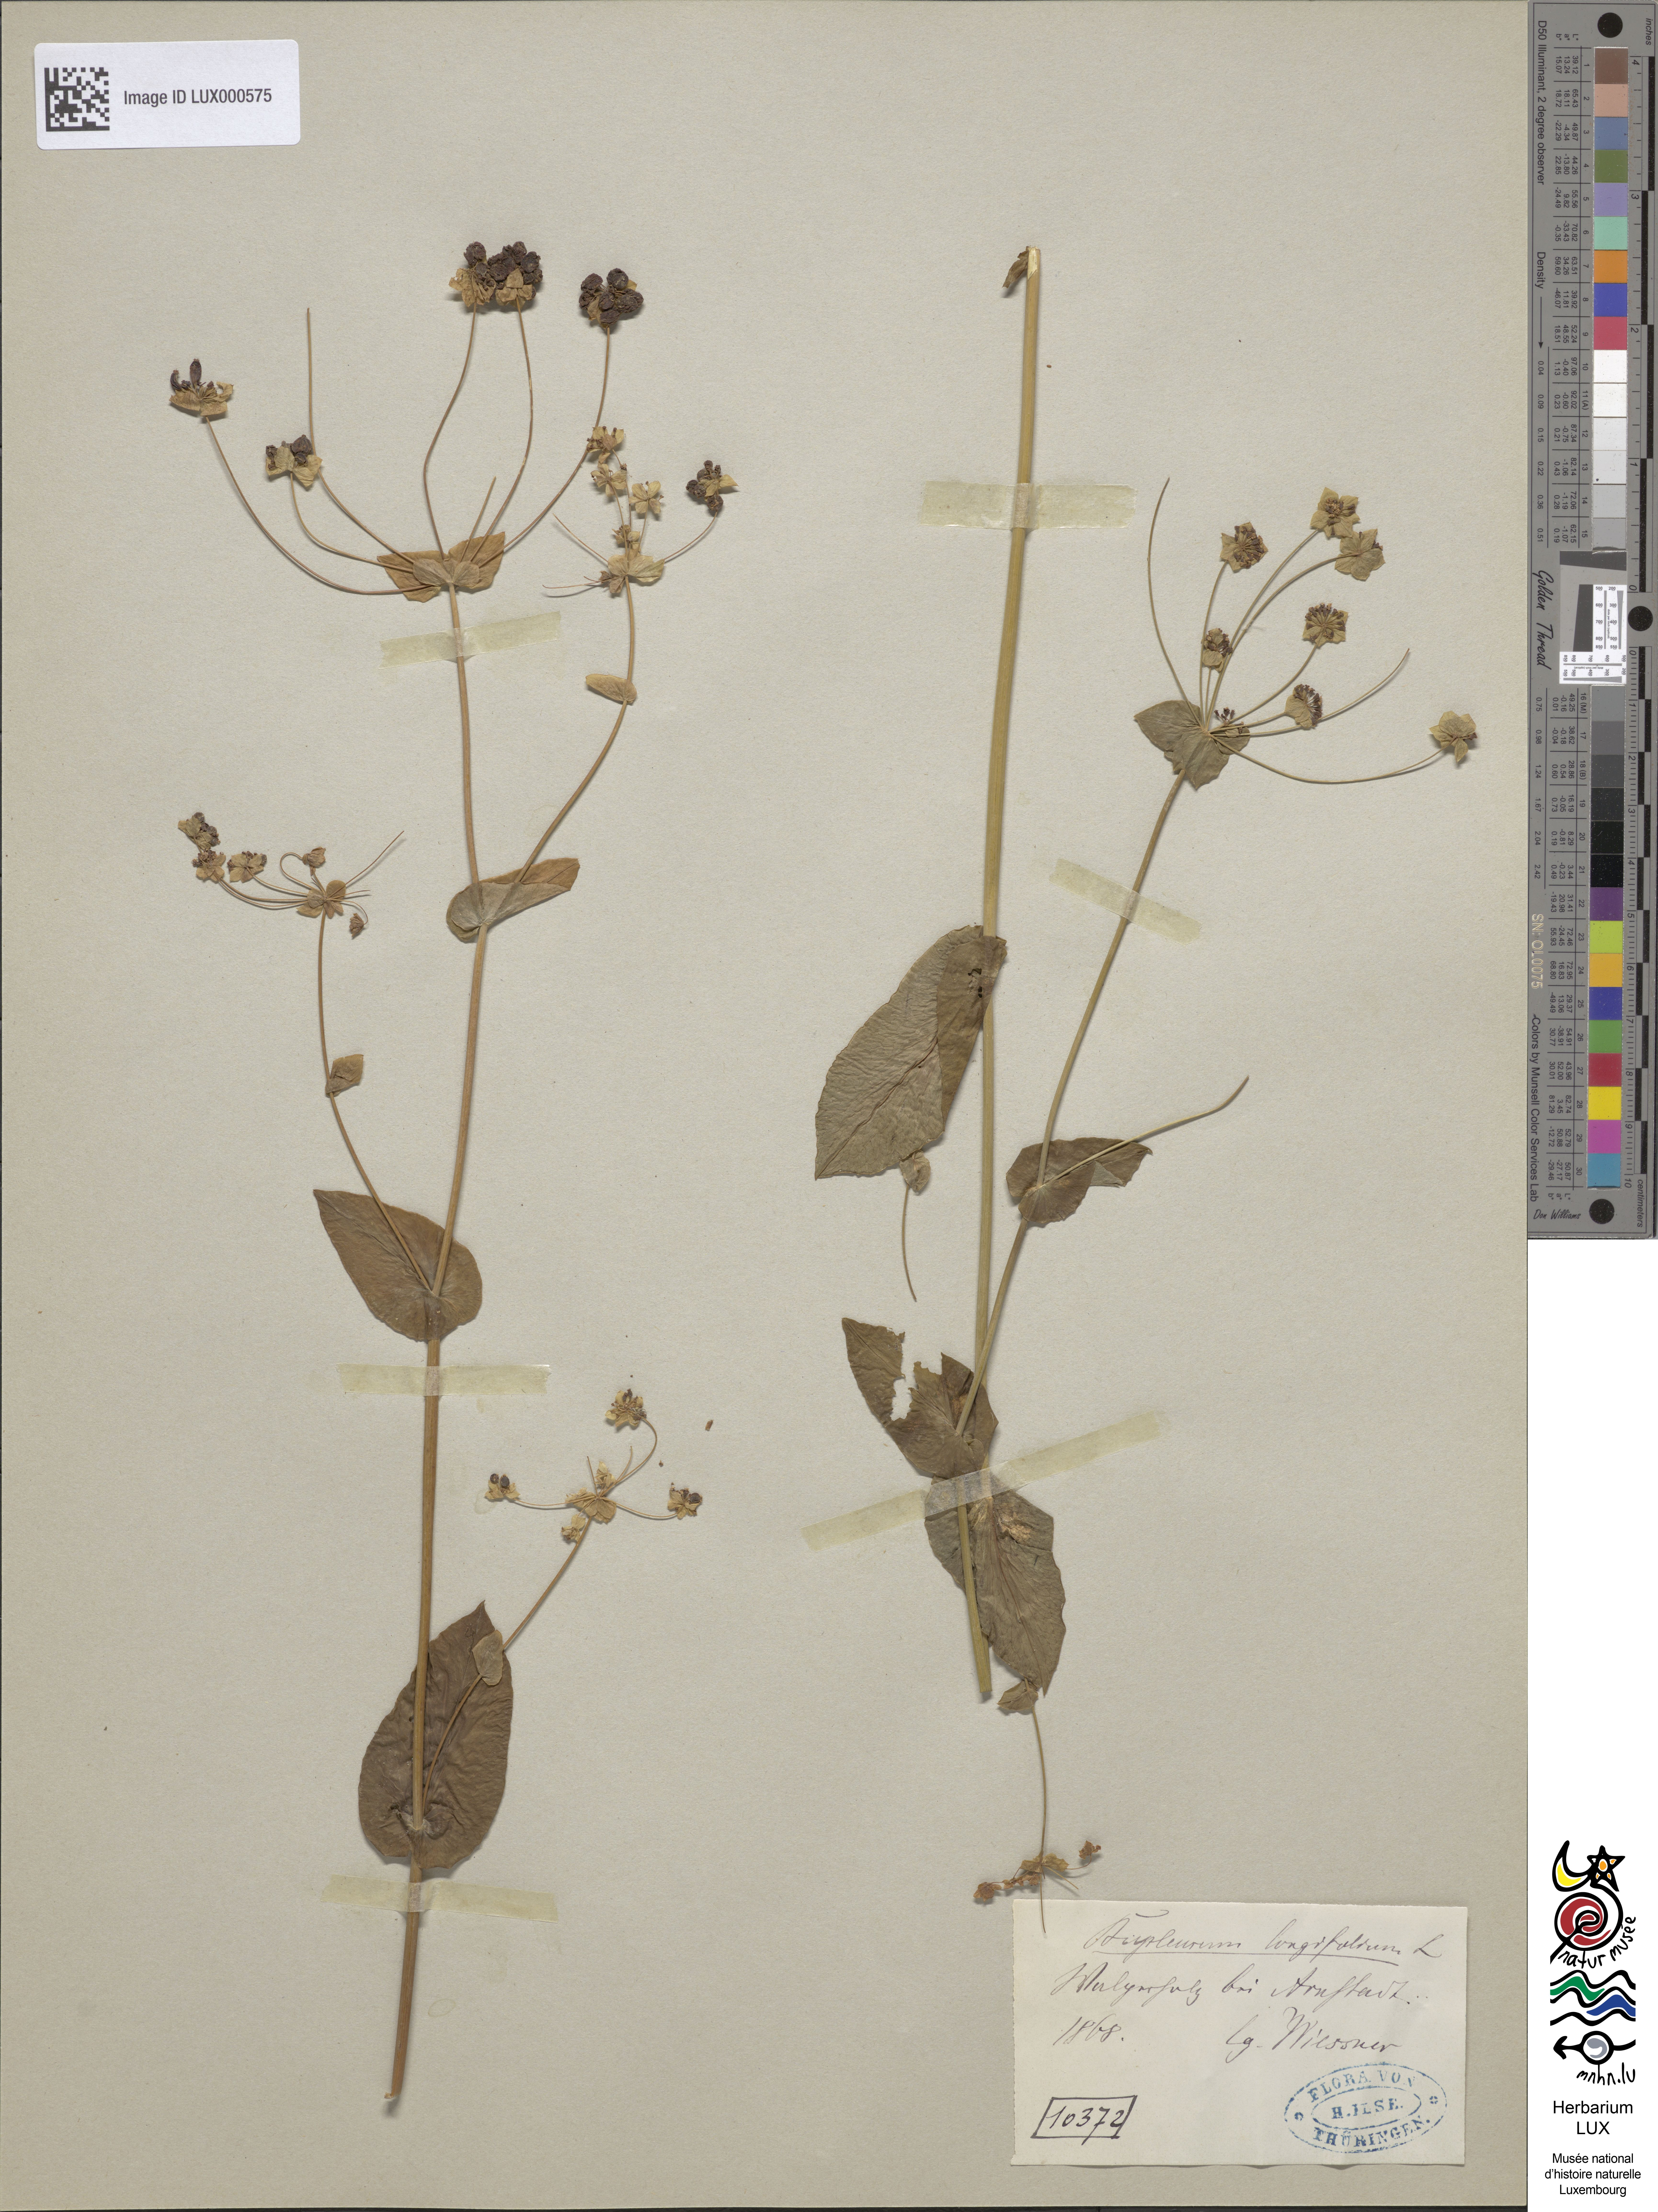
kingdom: Plantae
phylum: Tracheophyta
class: Magnoliopsida
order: Apiales
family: Apiaceae
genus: Bupleurum
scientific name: Bupleurum longifolium
